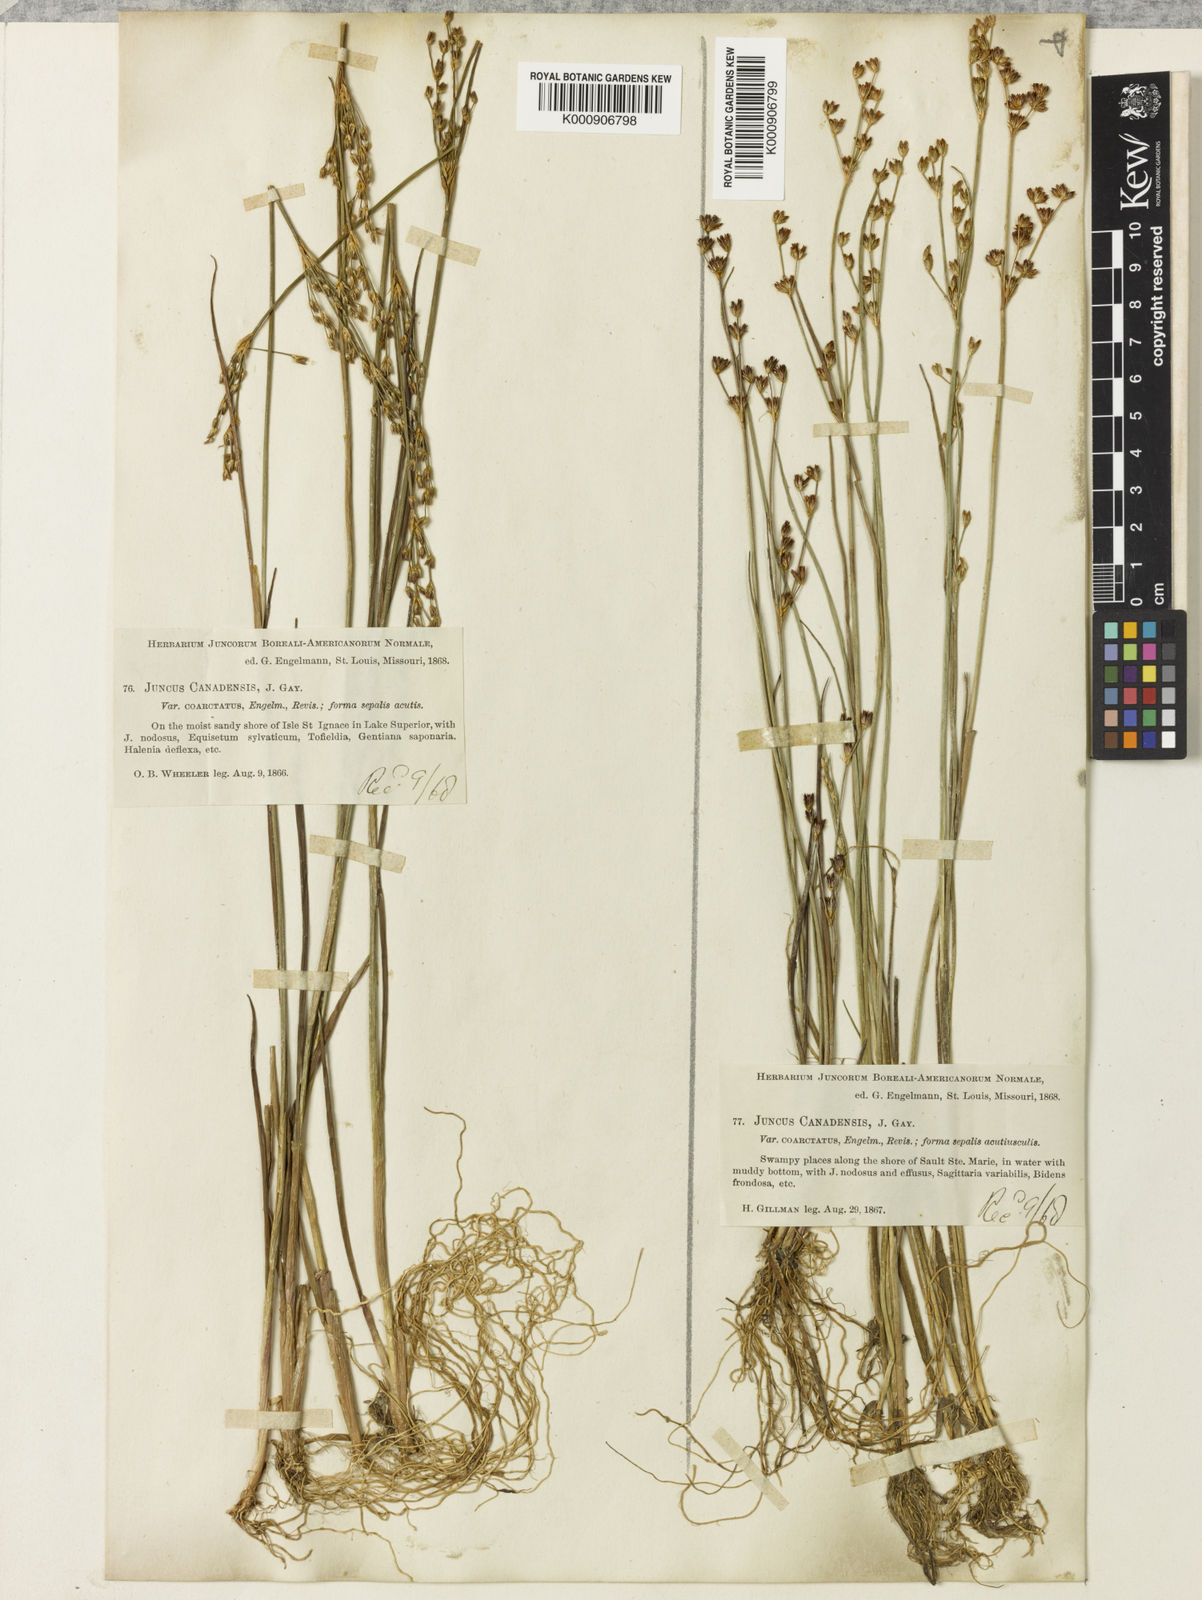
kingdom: Plantae
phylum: Tracheophyta
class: Liliopsida
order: Poales
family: Juncaceae
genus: Juncus
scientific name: Juncus
